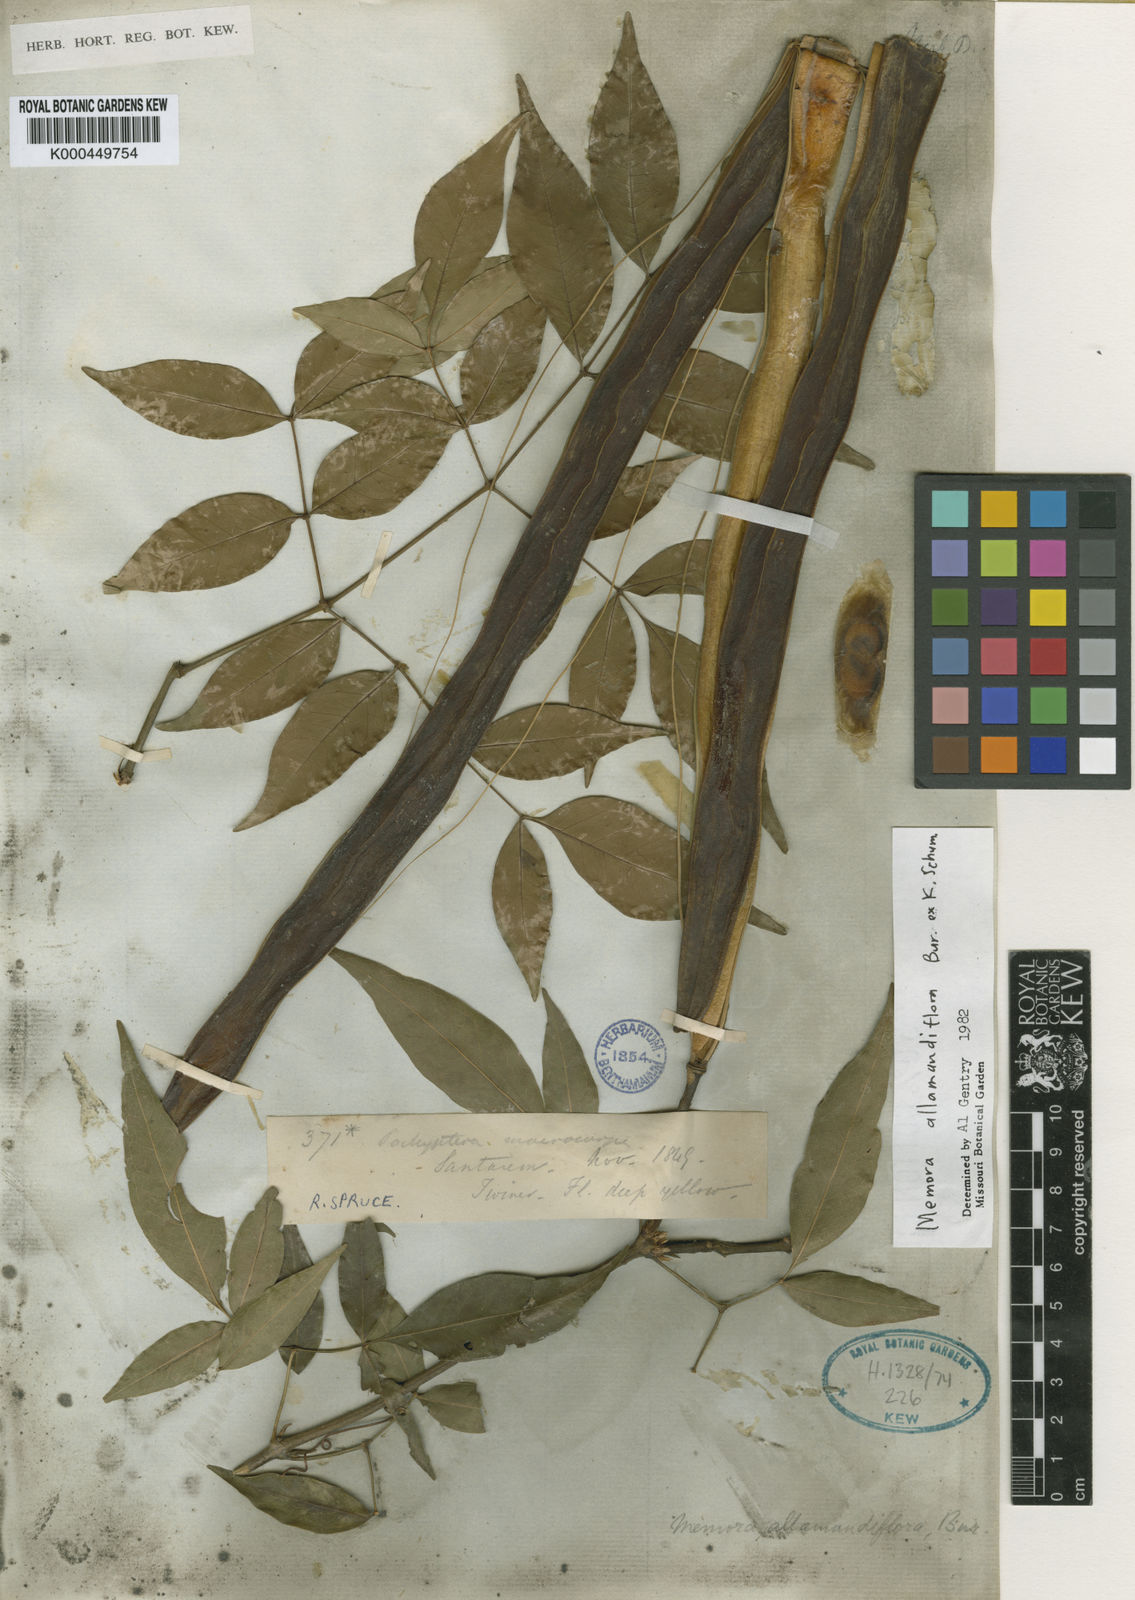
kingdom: Plantae
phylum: Tracheophyta
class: Magnoliopsida
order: Lamiales
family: Bignoniaceae
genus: Adenocalymma
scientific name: Adenocalymma
